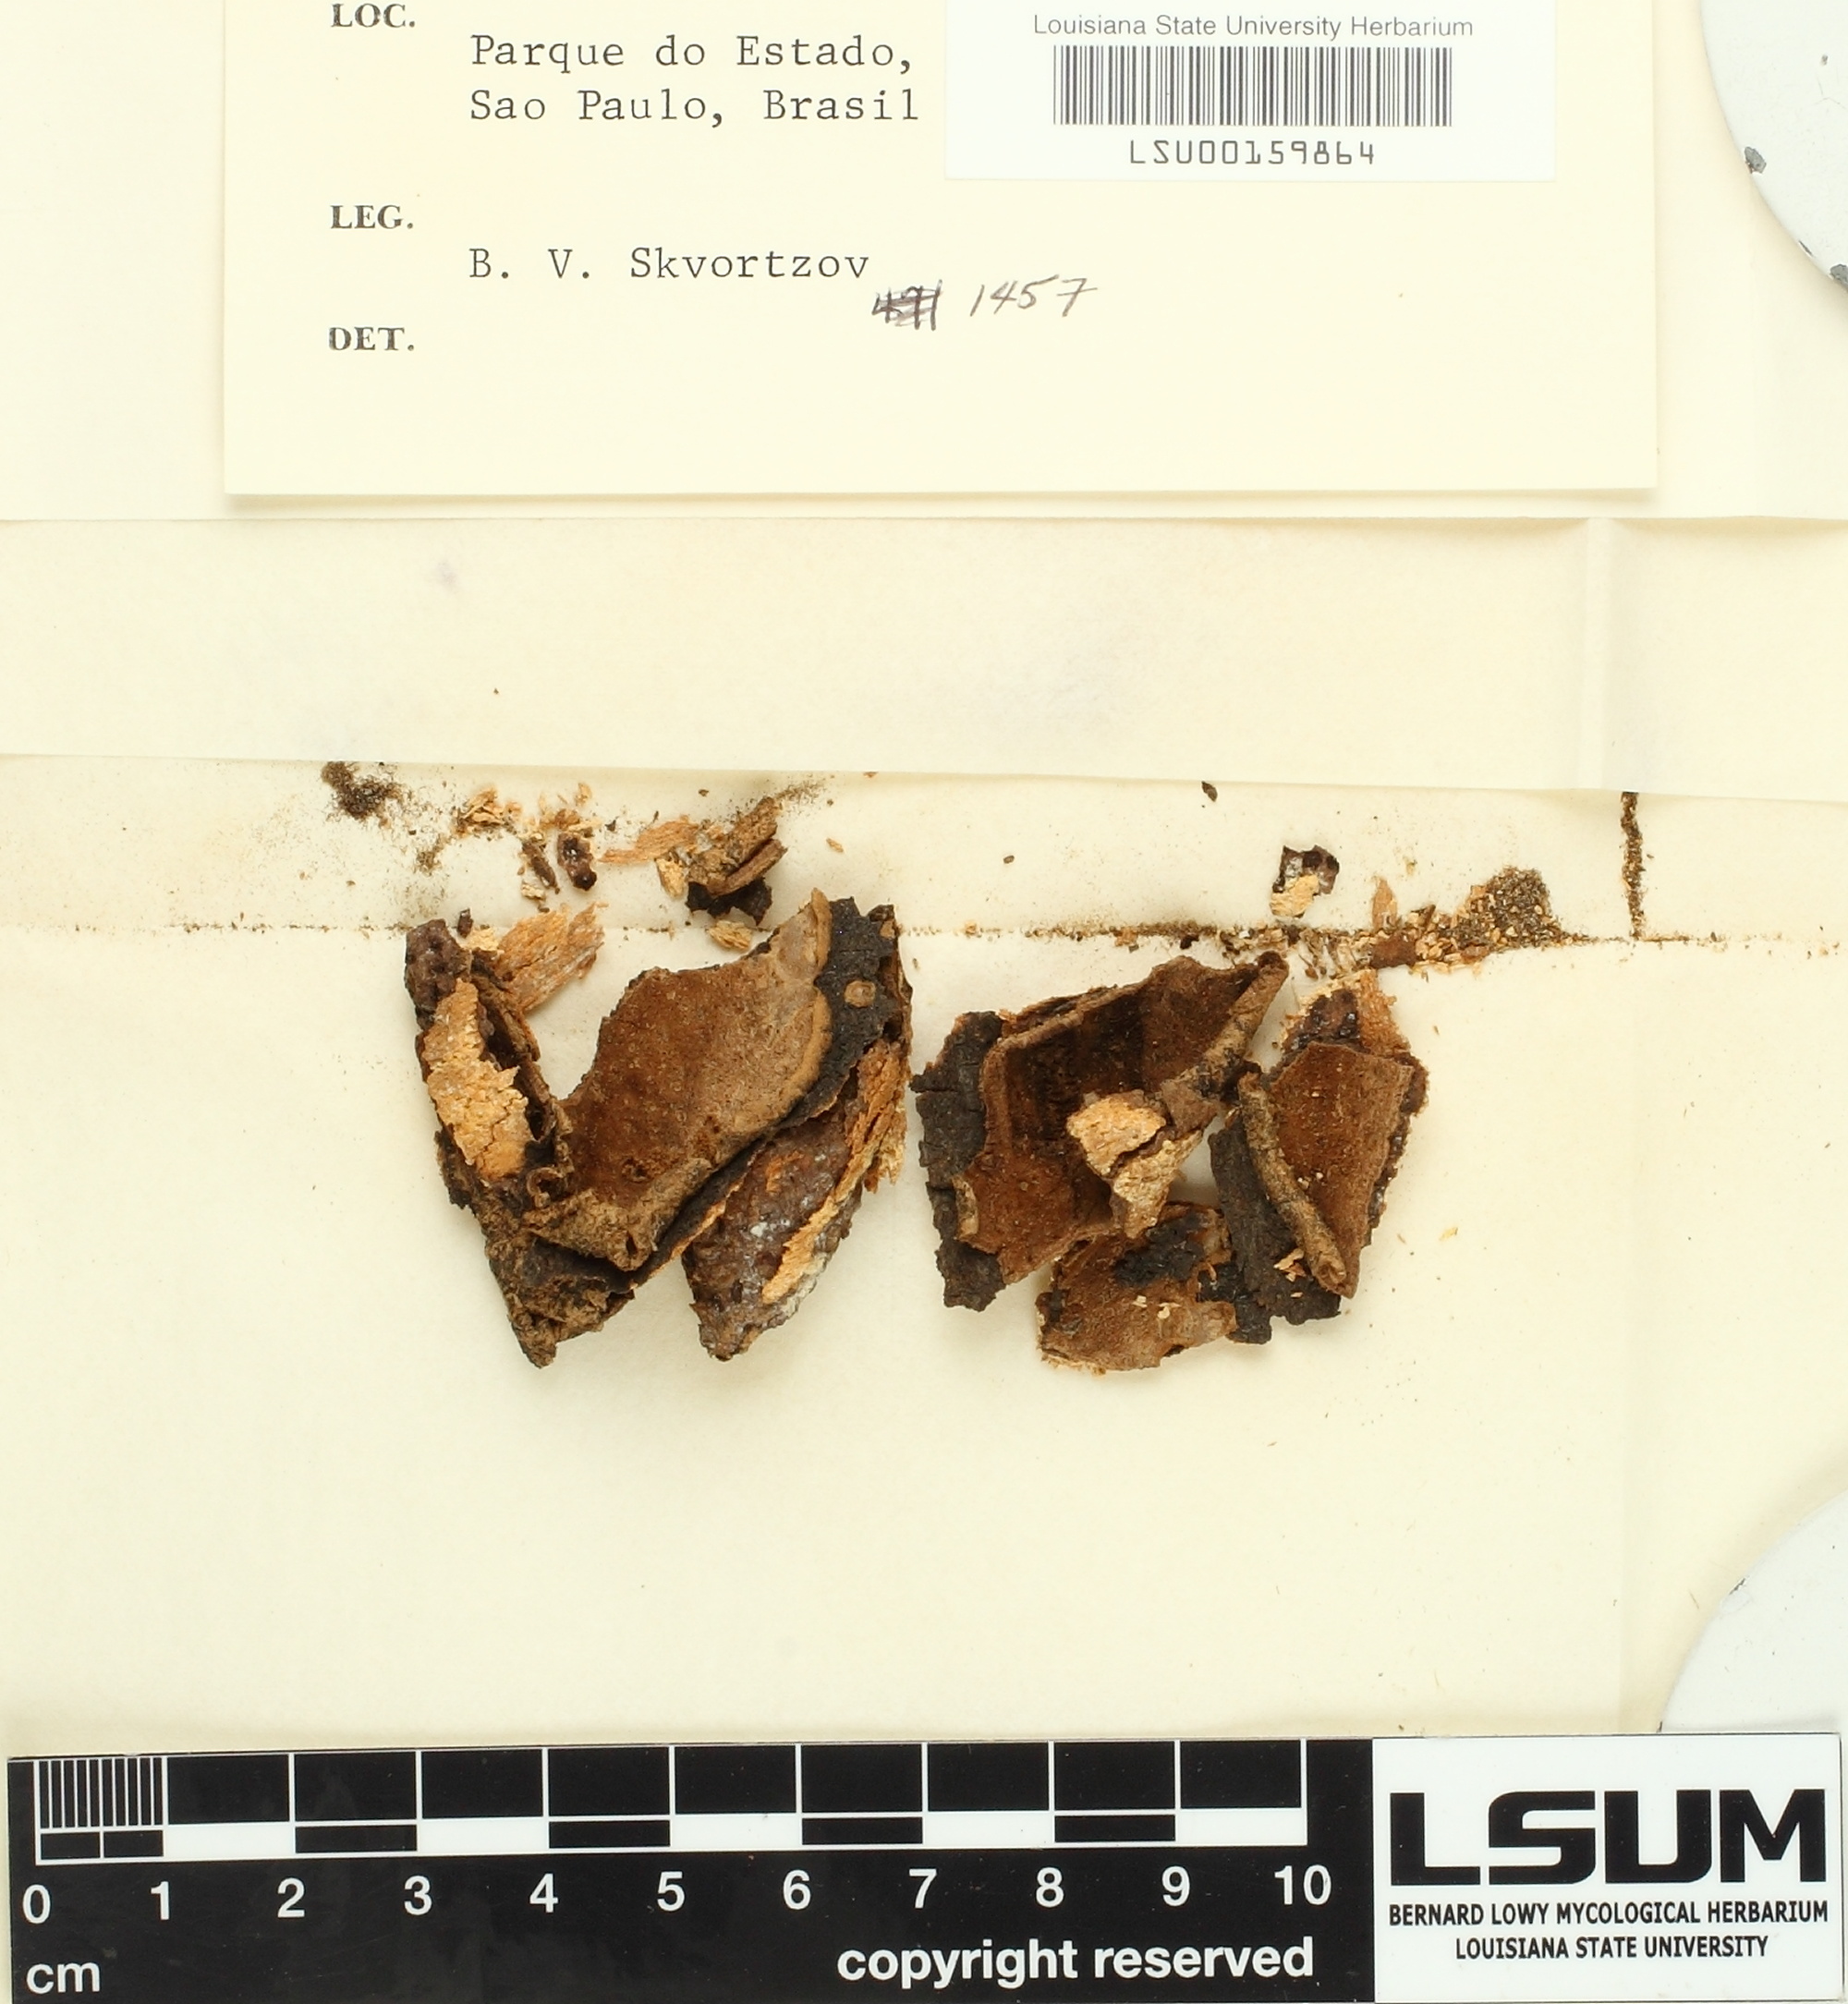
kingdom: Fungi
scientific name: Fungi
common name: Fungi
